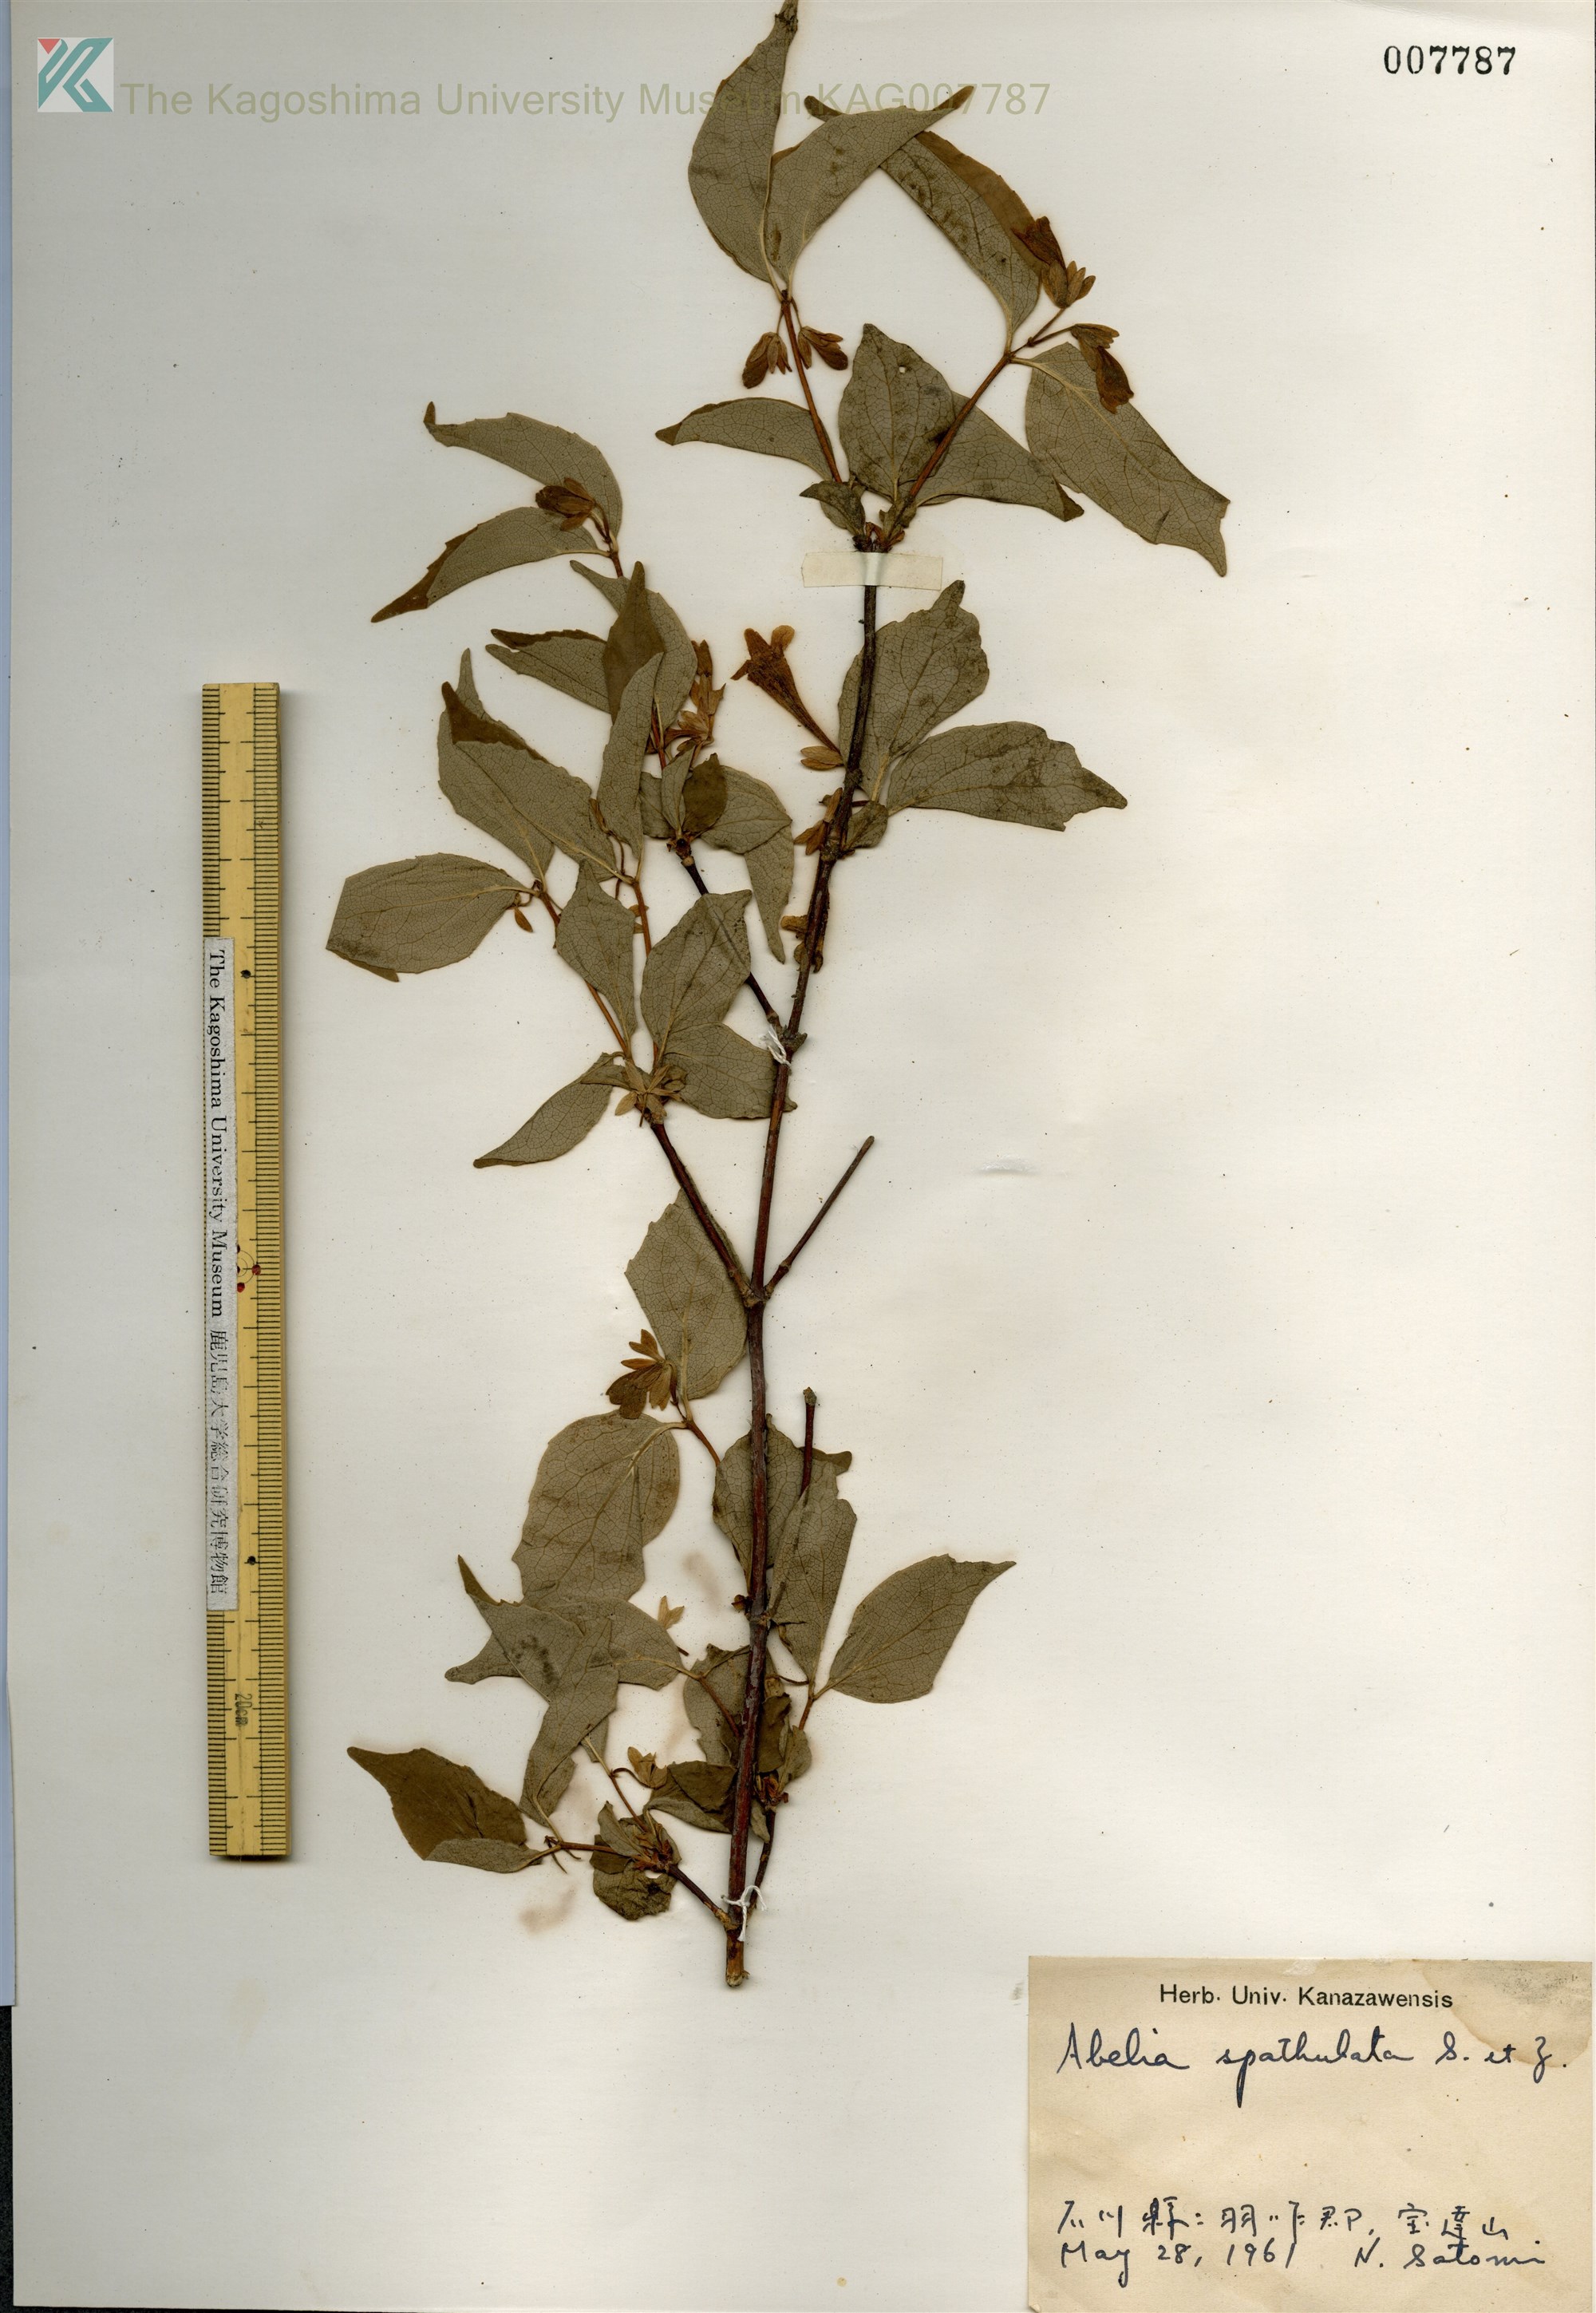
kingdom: Plantae
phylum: Tracheophyta
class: Magnoliopsida
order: Dipsacales
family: Caprifoliaceae
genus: Diabelia
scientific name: Diabelia spathulata
